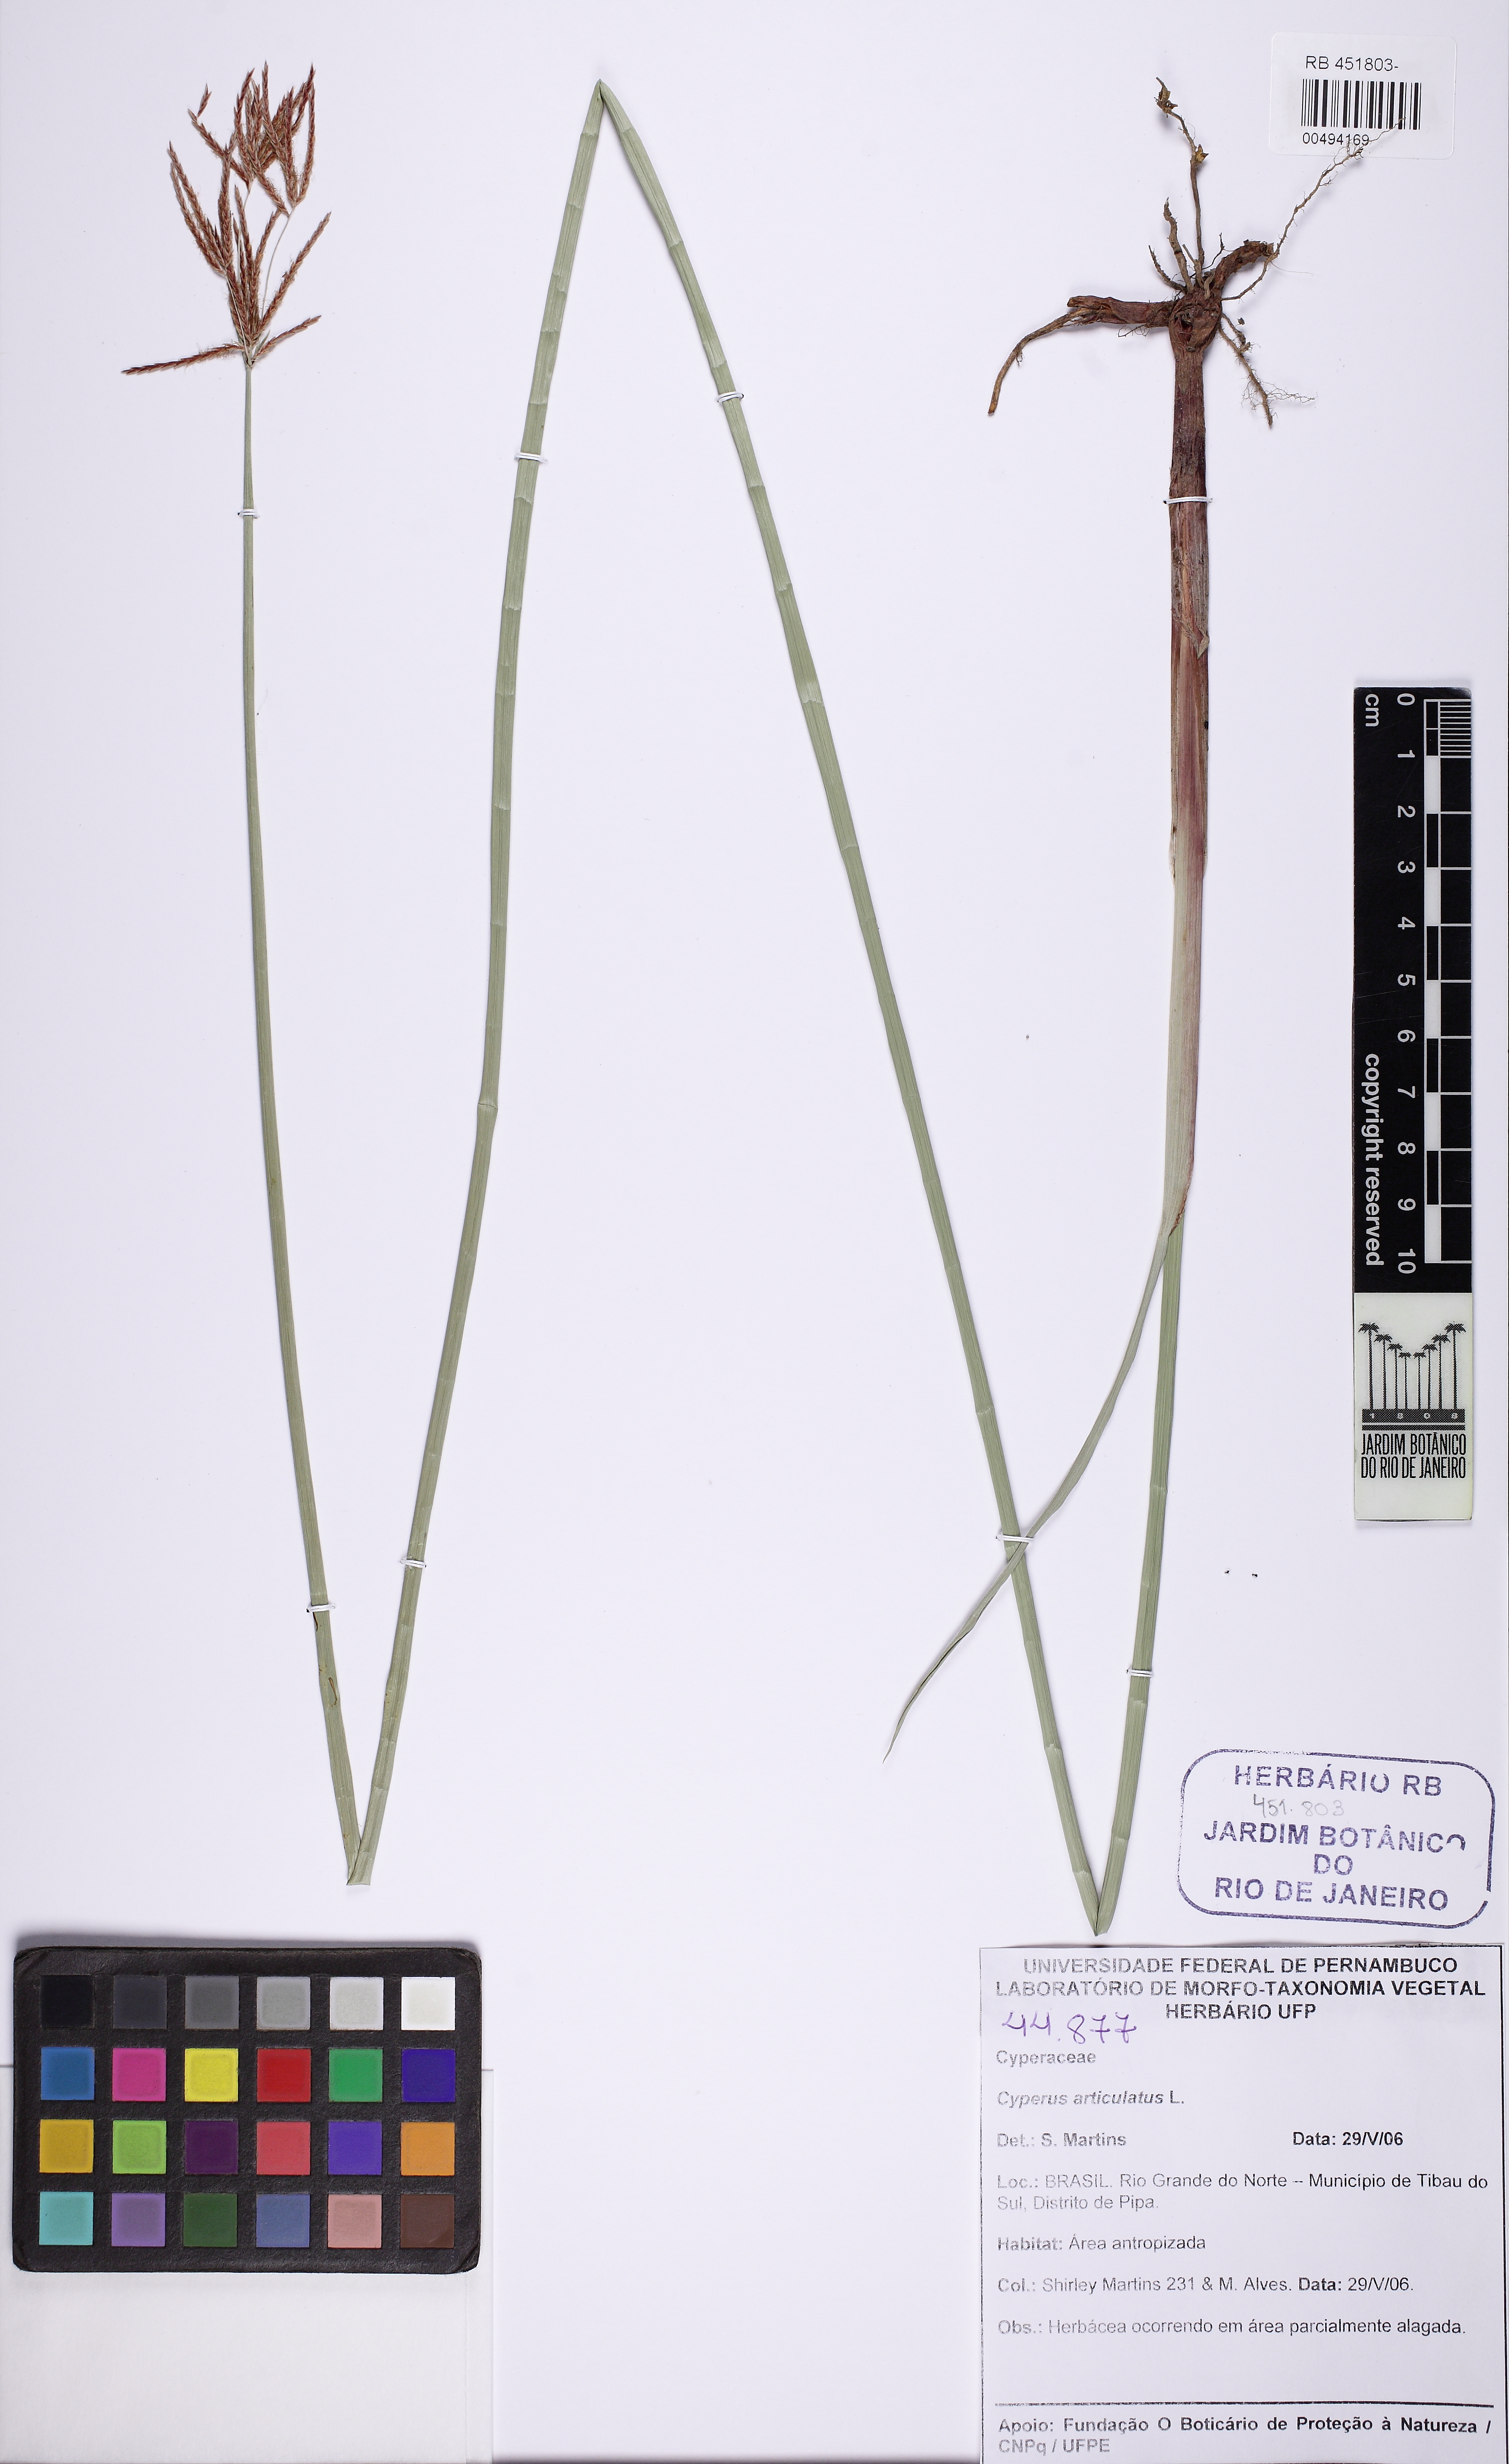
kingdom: Plantae
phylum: Tracheophyta
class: Liliopsida
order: Poales
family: Cyperaceae
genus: Cyperus
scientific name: Cyperus articulatus
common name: Jointed flatsedge
